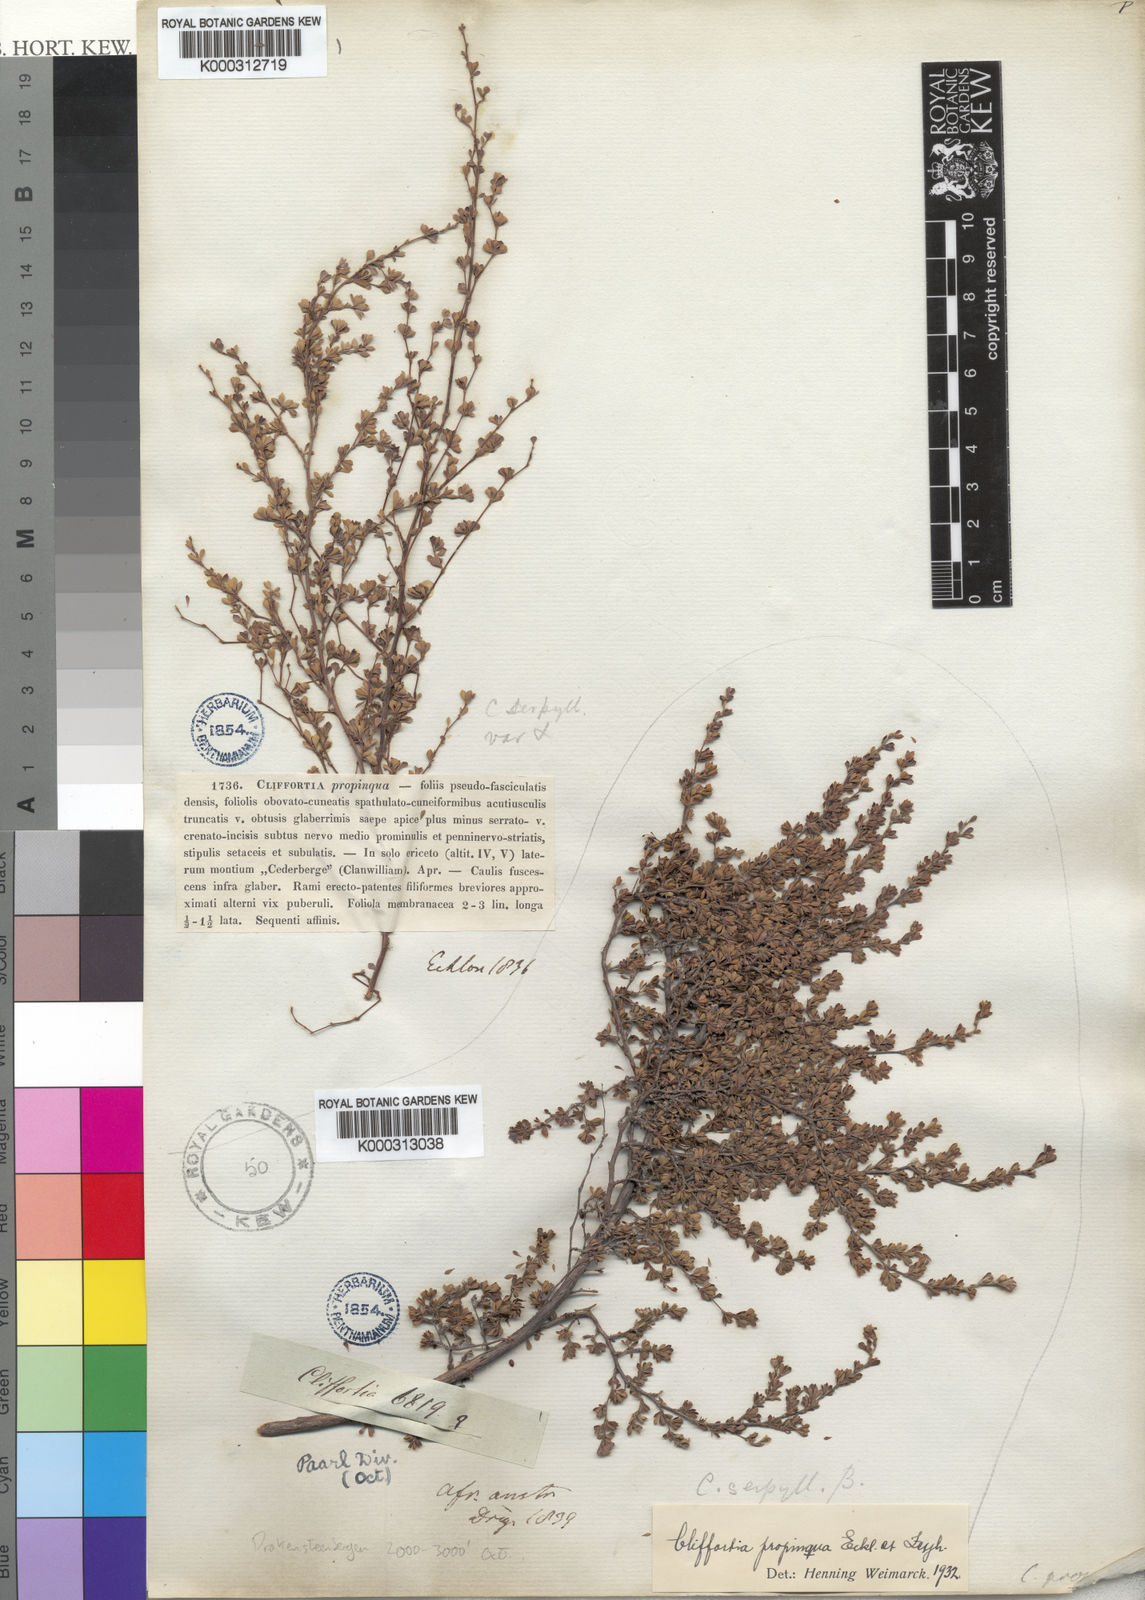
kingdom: Plantae
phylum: Tracheophyta
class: Magnoliopsida
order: Rosales
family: Rosaceae
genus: Cliffortia
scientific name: Cliffortia propinqua
